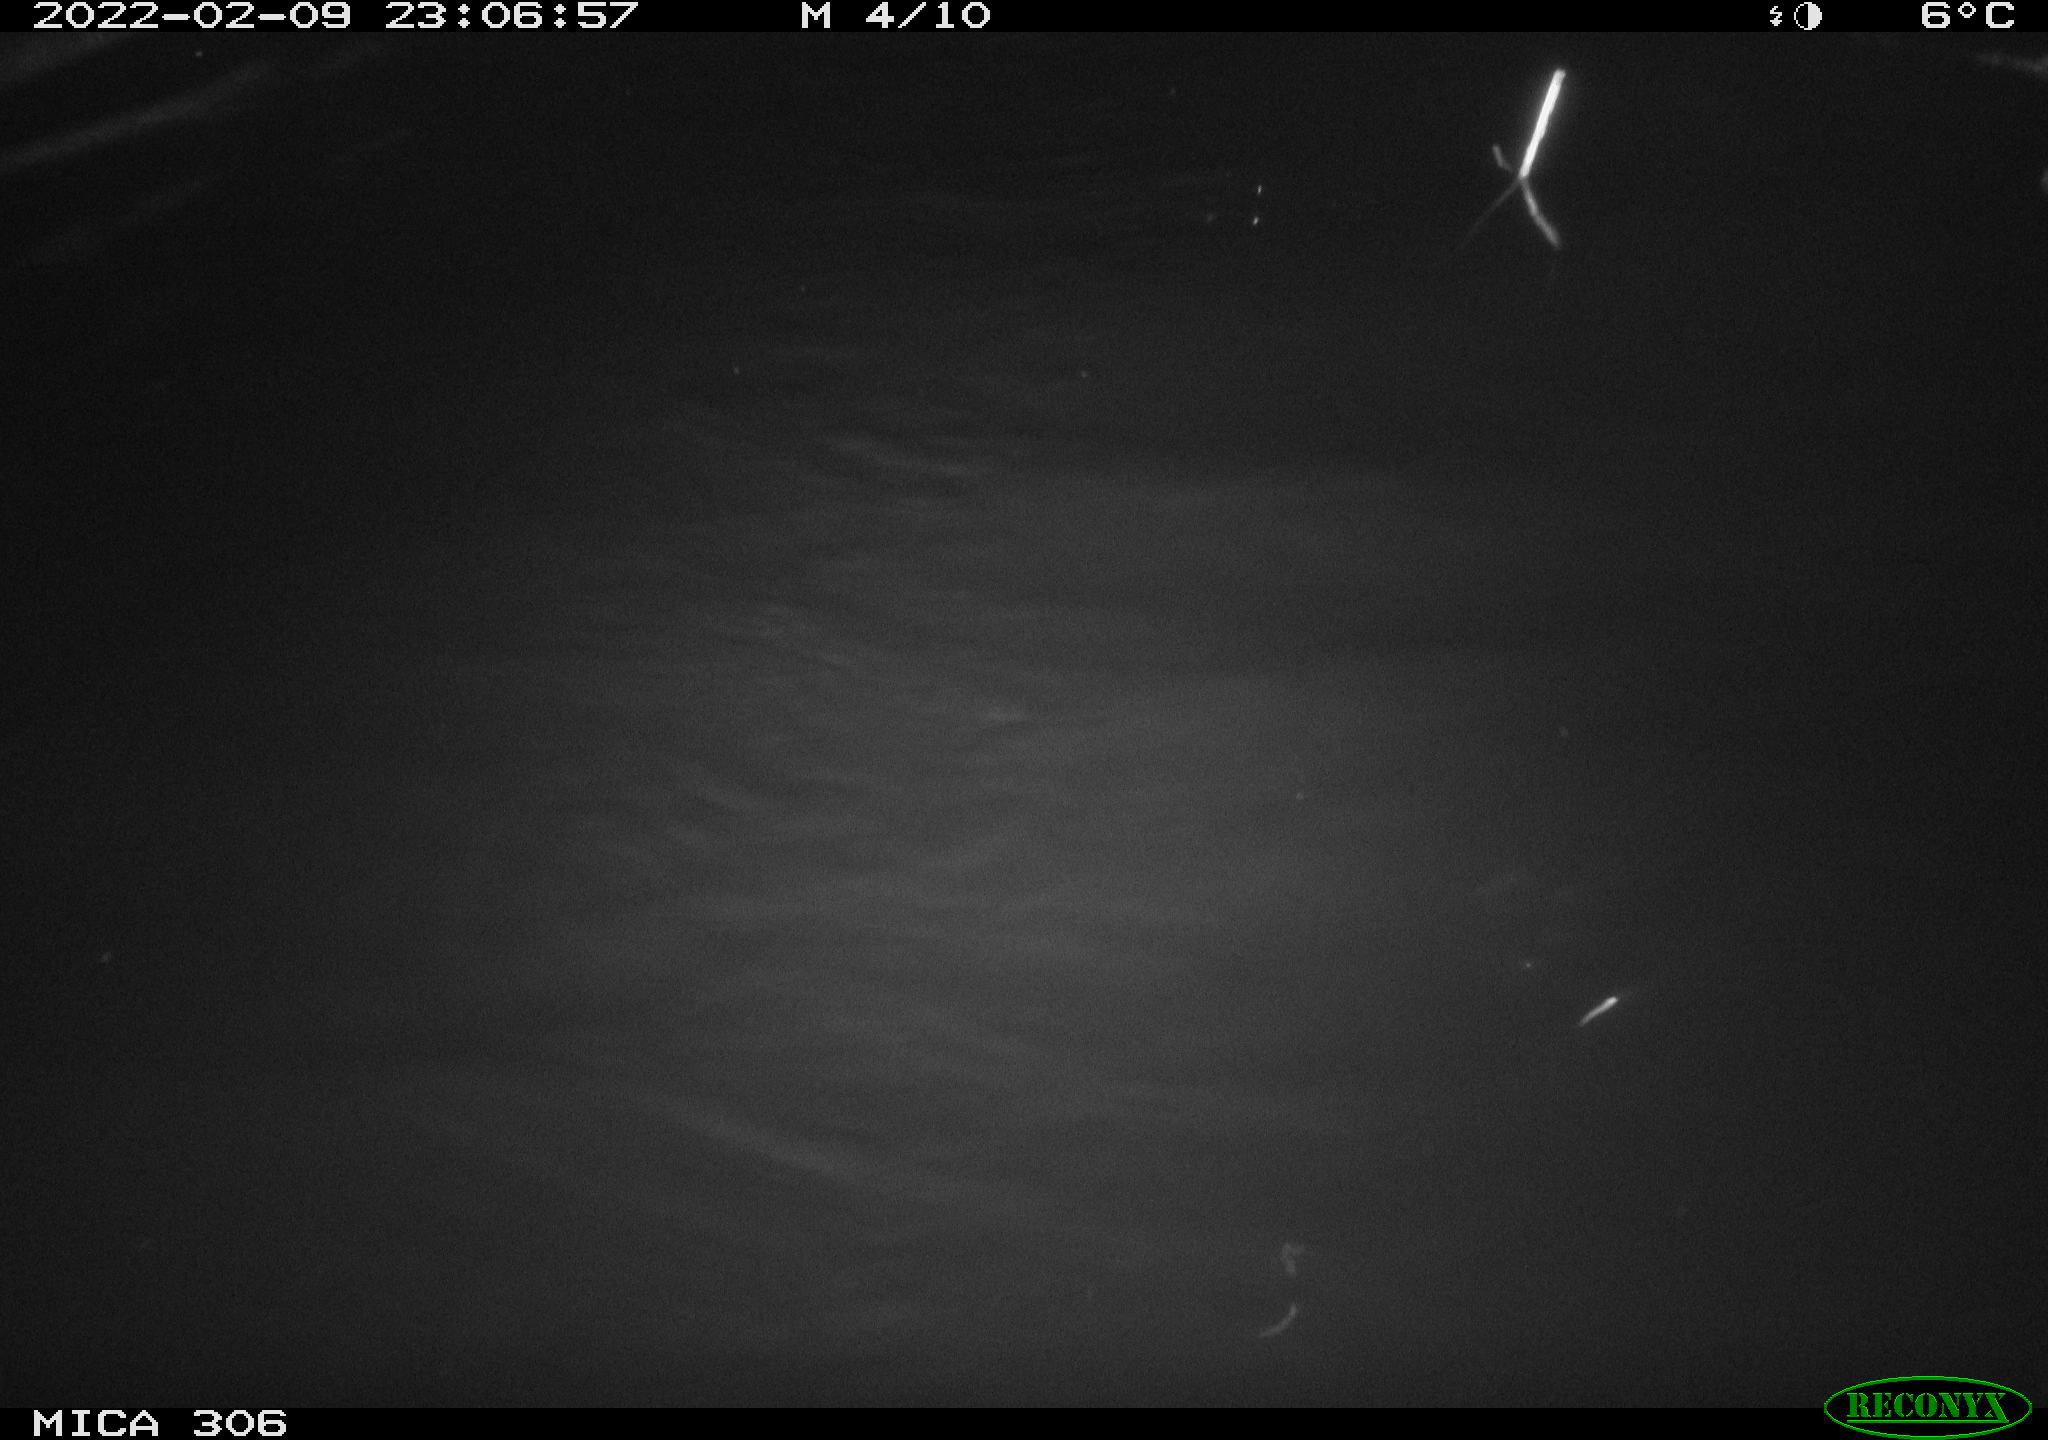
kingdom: Animalia
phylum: Chordata
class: Mammalia
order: Rodentia
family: Cricetidae
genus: Ondatra
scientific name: Ondatra zibethicus
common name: Muskrat
